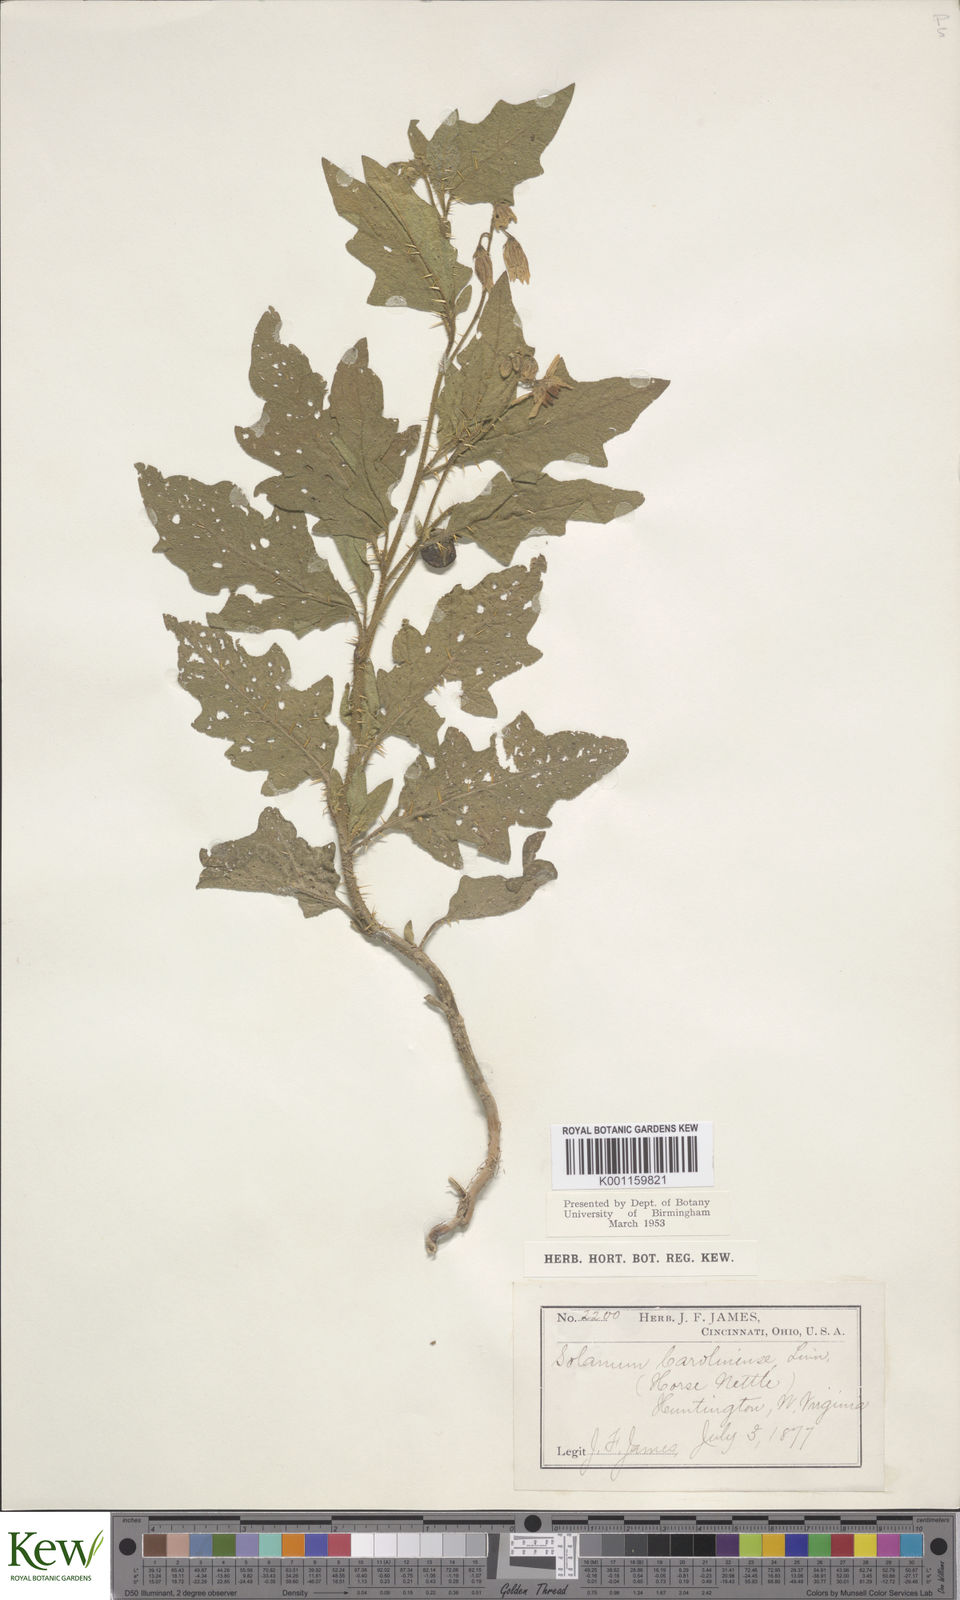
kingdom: Plantae
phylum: Tracheophyta
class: Magnoliopsida
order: Solanales
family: Solanaceae
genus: Solanum
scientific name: Solanum carolinense
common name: Horse-nettle
